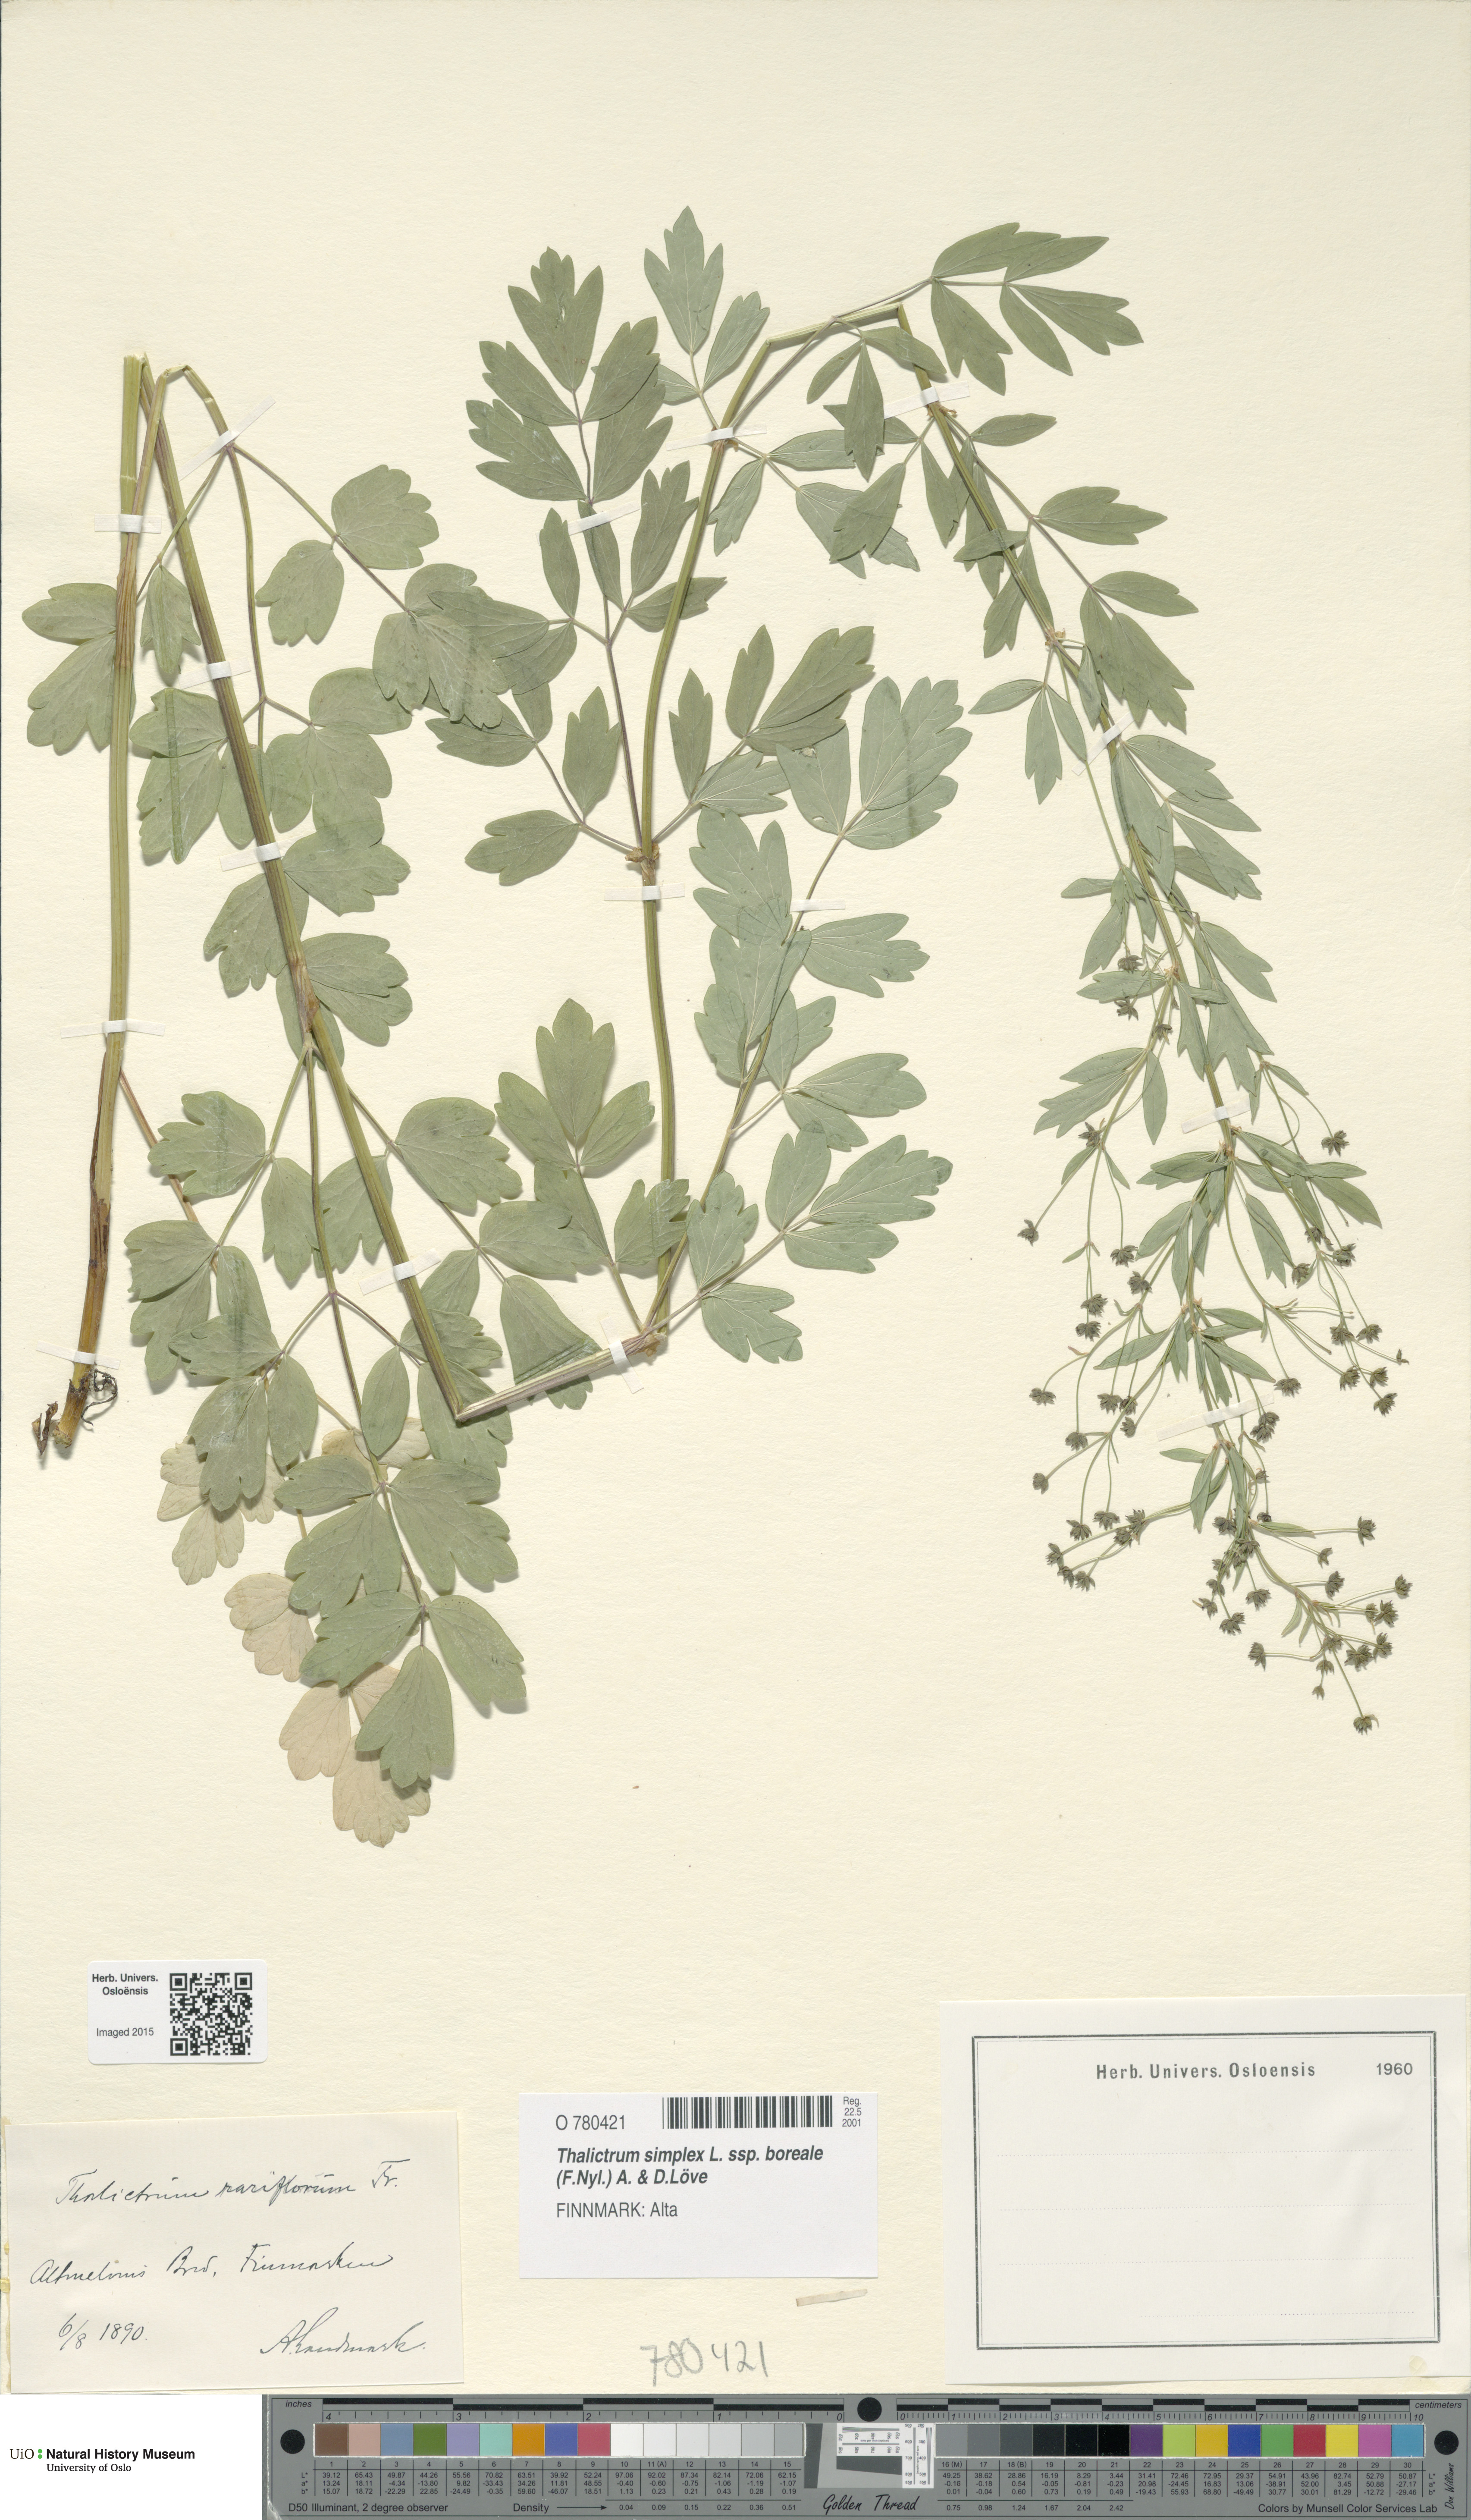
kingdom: Plantae
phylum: Tracheophyta
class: Magnoliopsida
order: Ranunculales
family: Ranunculaceae
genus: Thalictrum
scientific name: Thalictrum simplex
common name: Small meadow-rue
